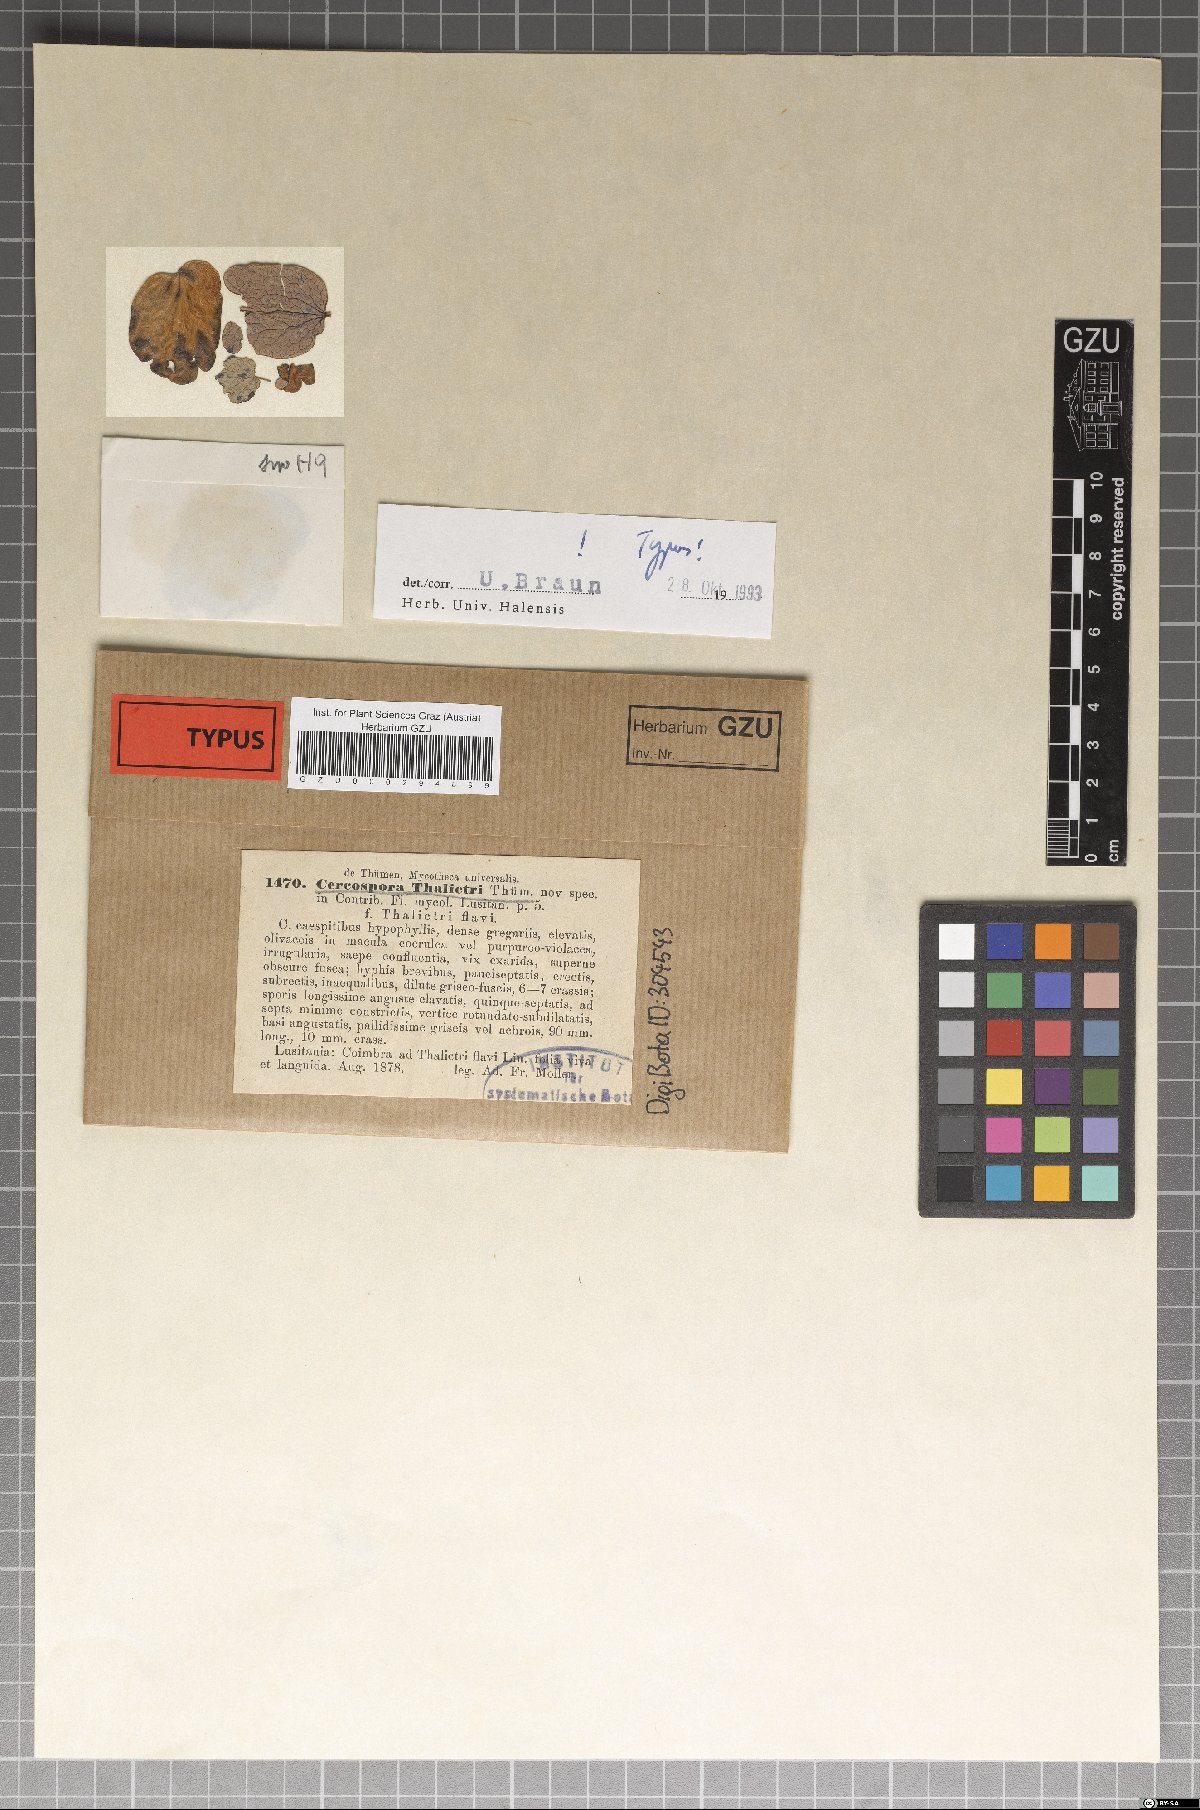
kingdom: Fungi
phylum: Ascomycota
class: Dothideomycetes
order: Mycosphaerellales
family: Mycosphaerellaceae
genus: Passalora
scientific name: Passalora thalictri
